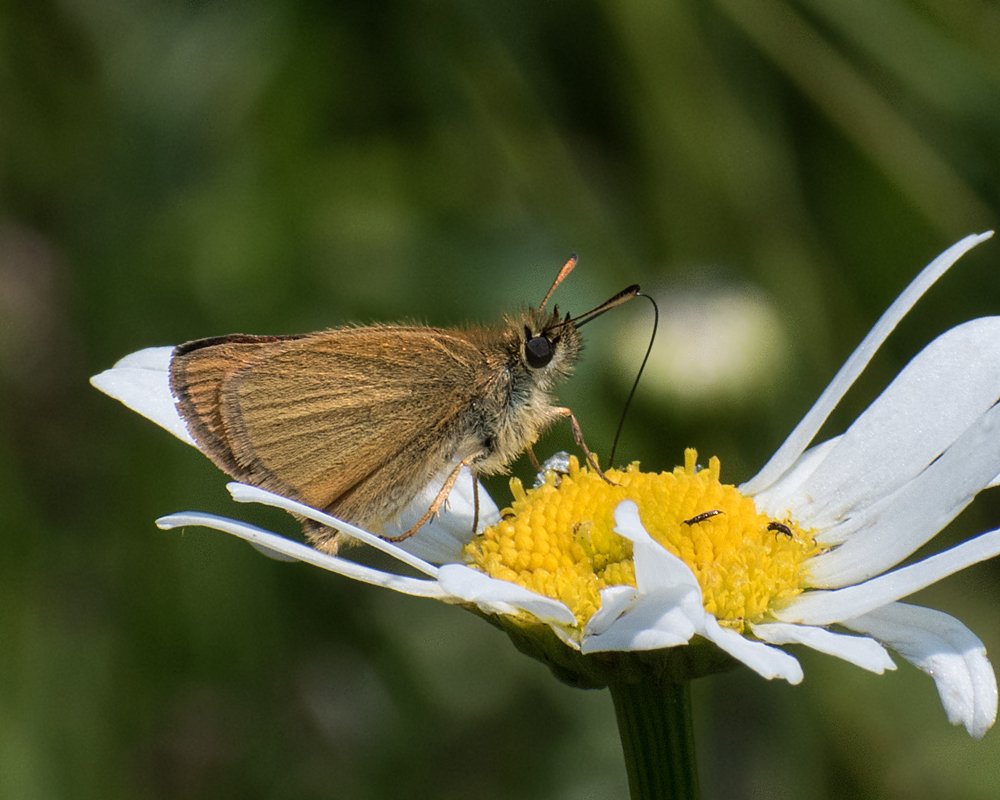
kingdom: Animalia
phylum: Arthropoda
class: Insecta
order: Lepidoptera
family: Hesperiidae
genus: Thymelicus
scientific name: Thymelicus lineola
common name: European Skipper
